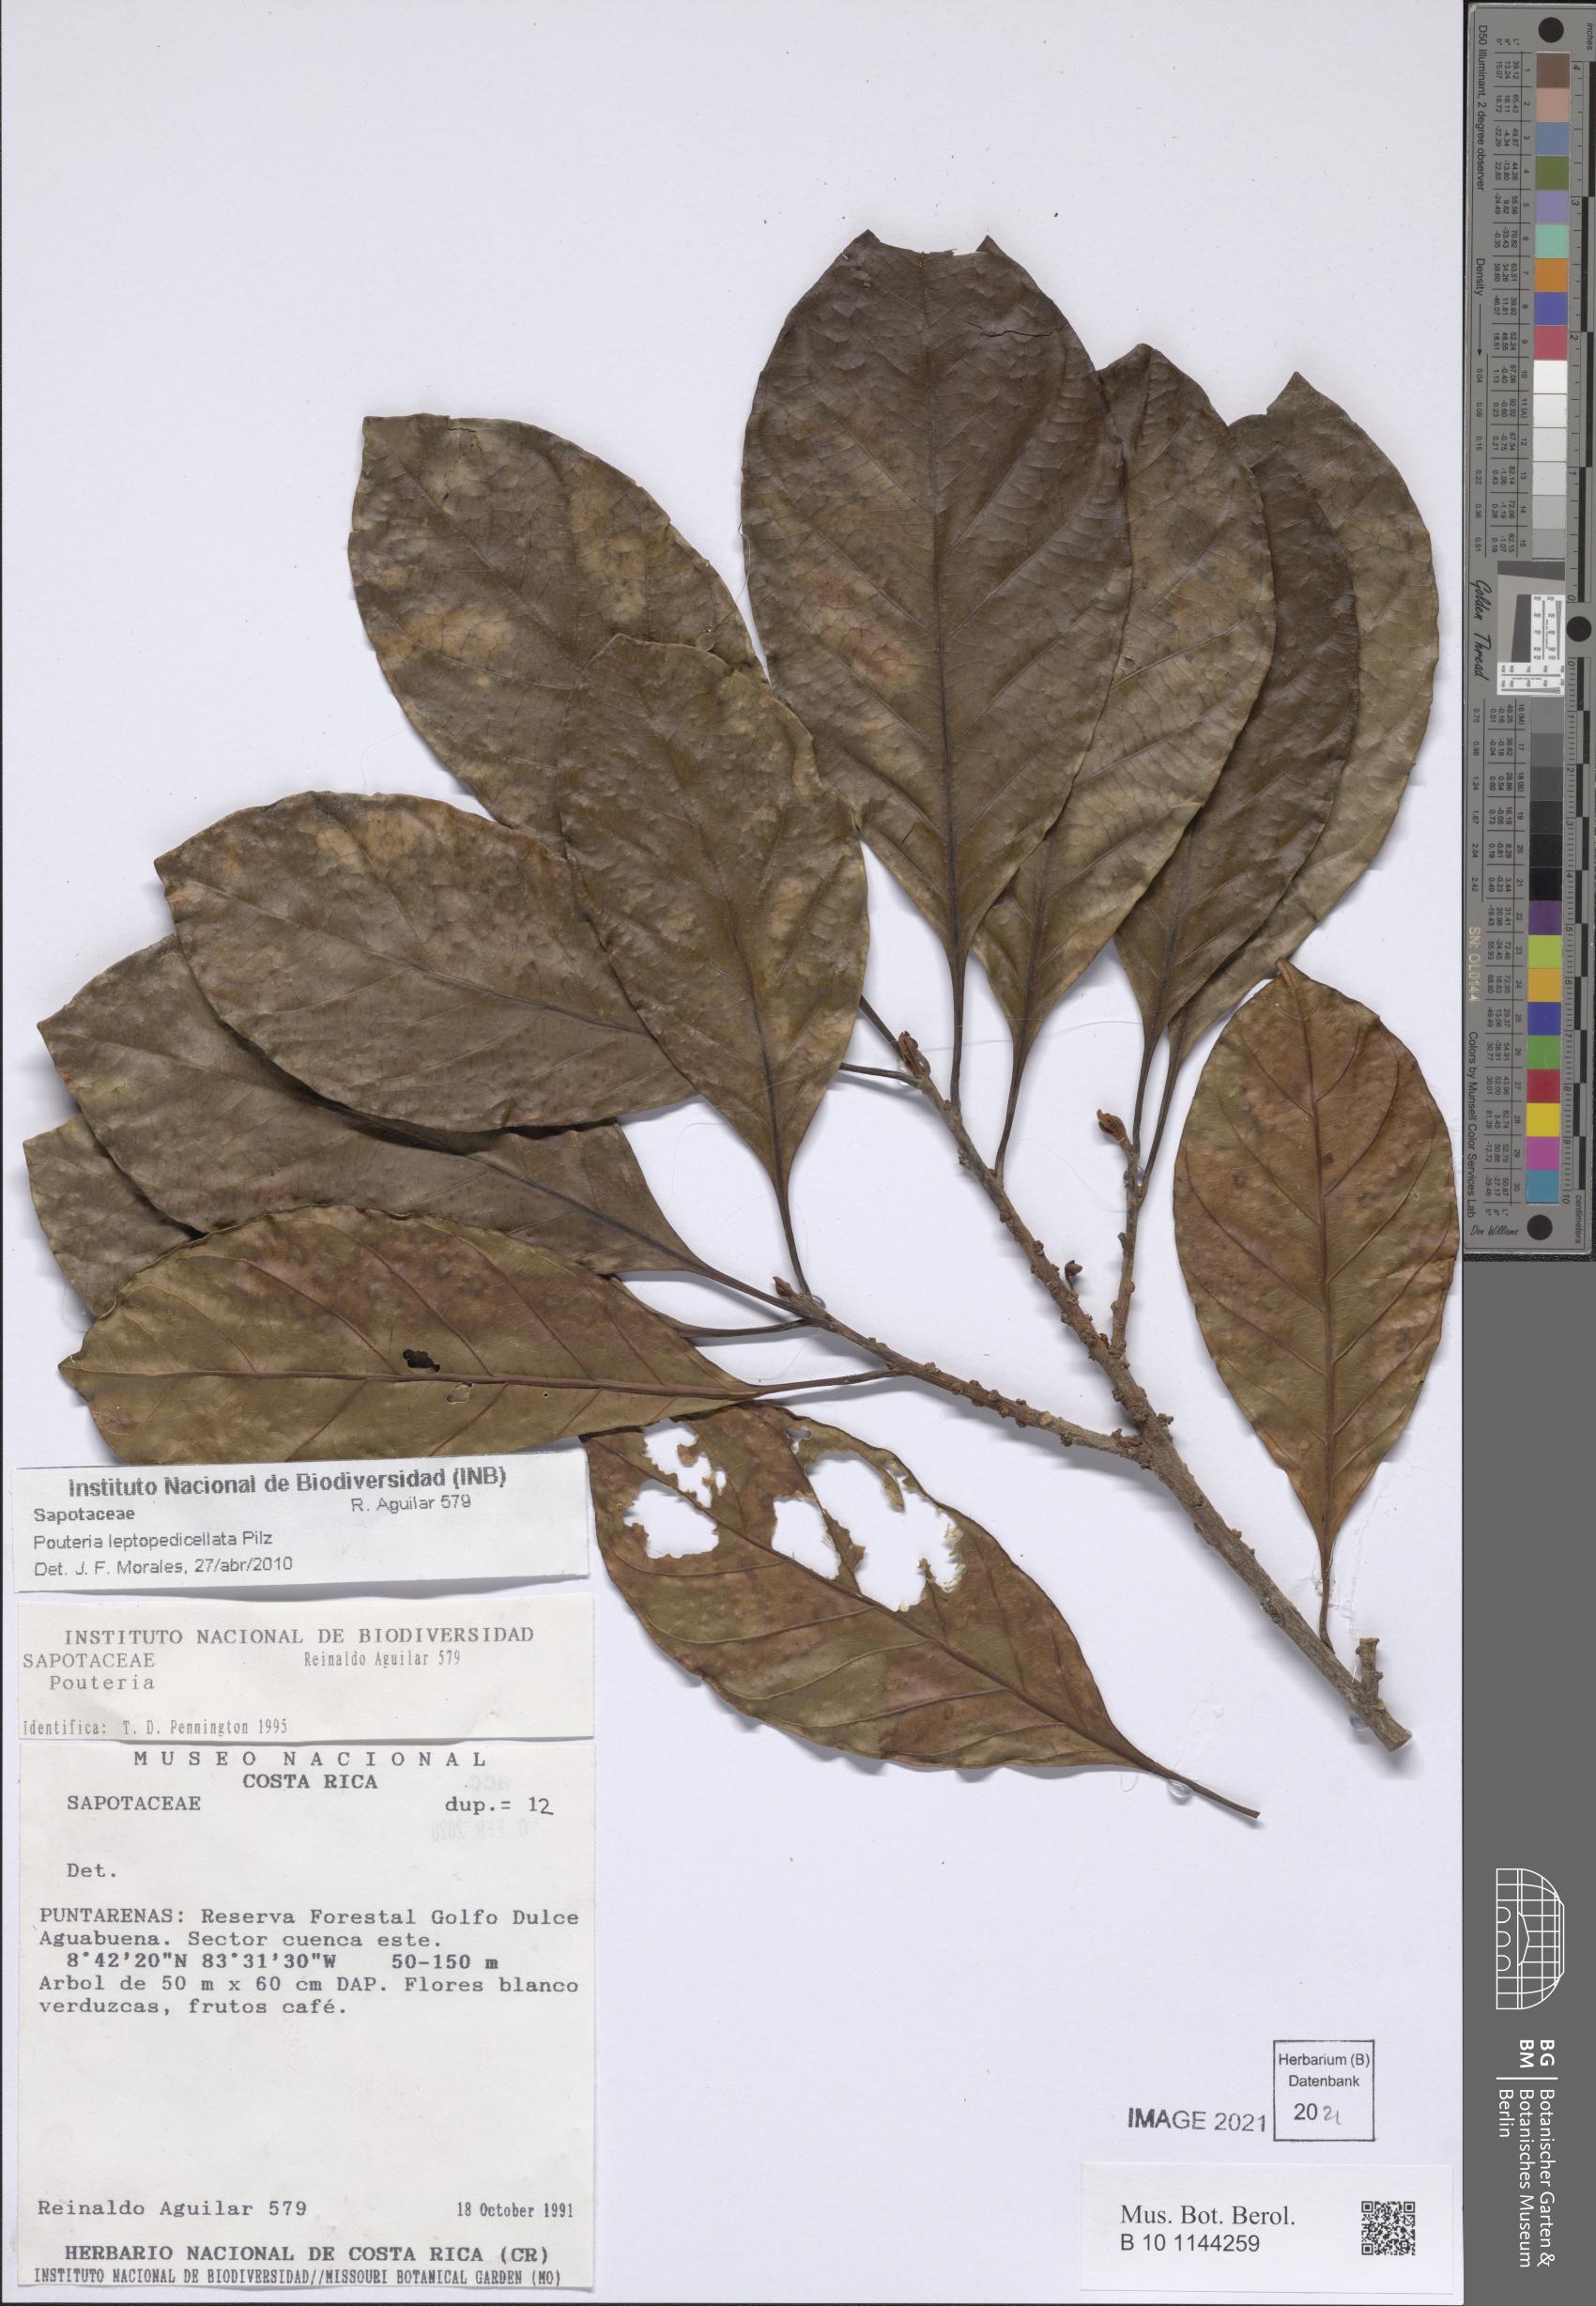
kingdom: Plantae
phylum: Tracheophyta
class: Magnoliopsida
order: Ericales
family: Sapotaceae
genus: Pouteria
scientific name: Pouteria leptopedicellata
